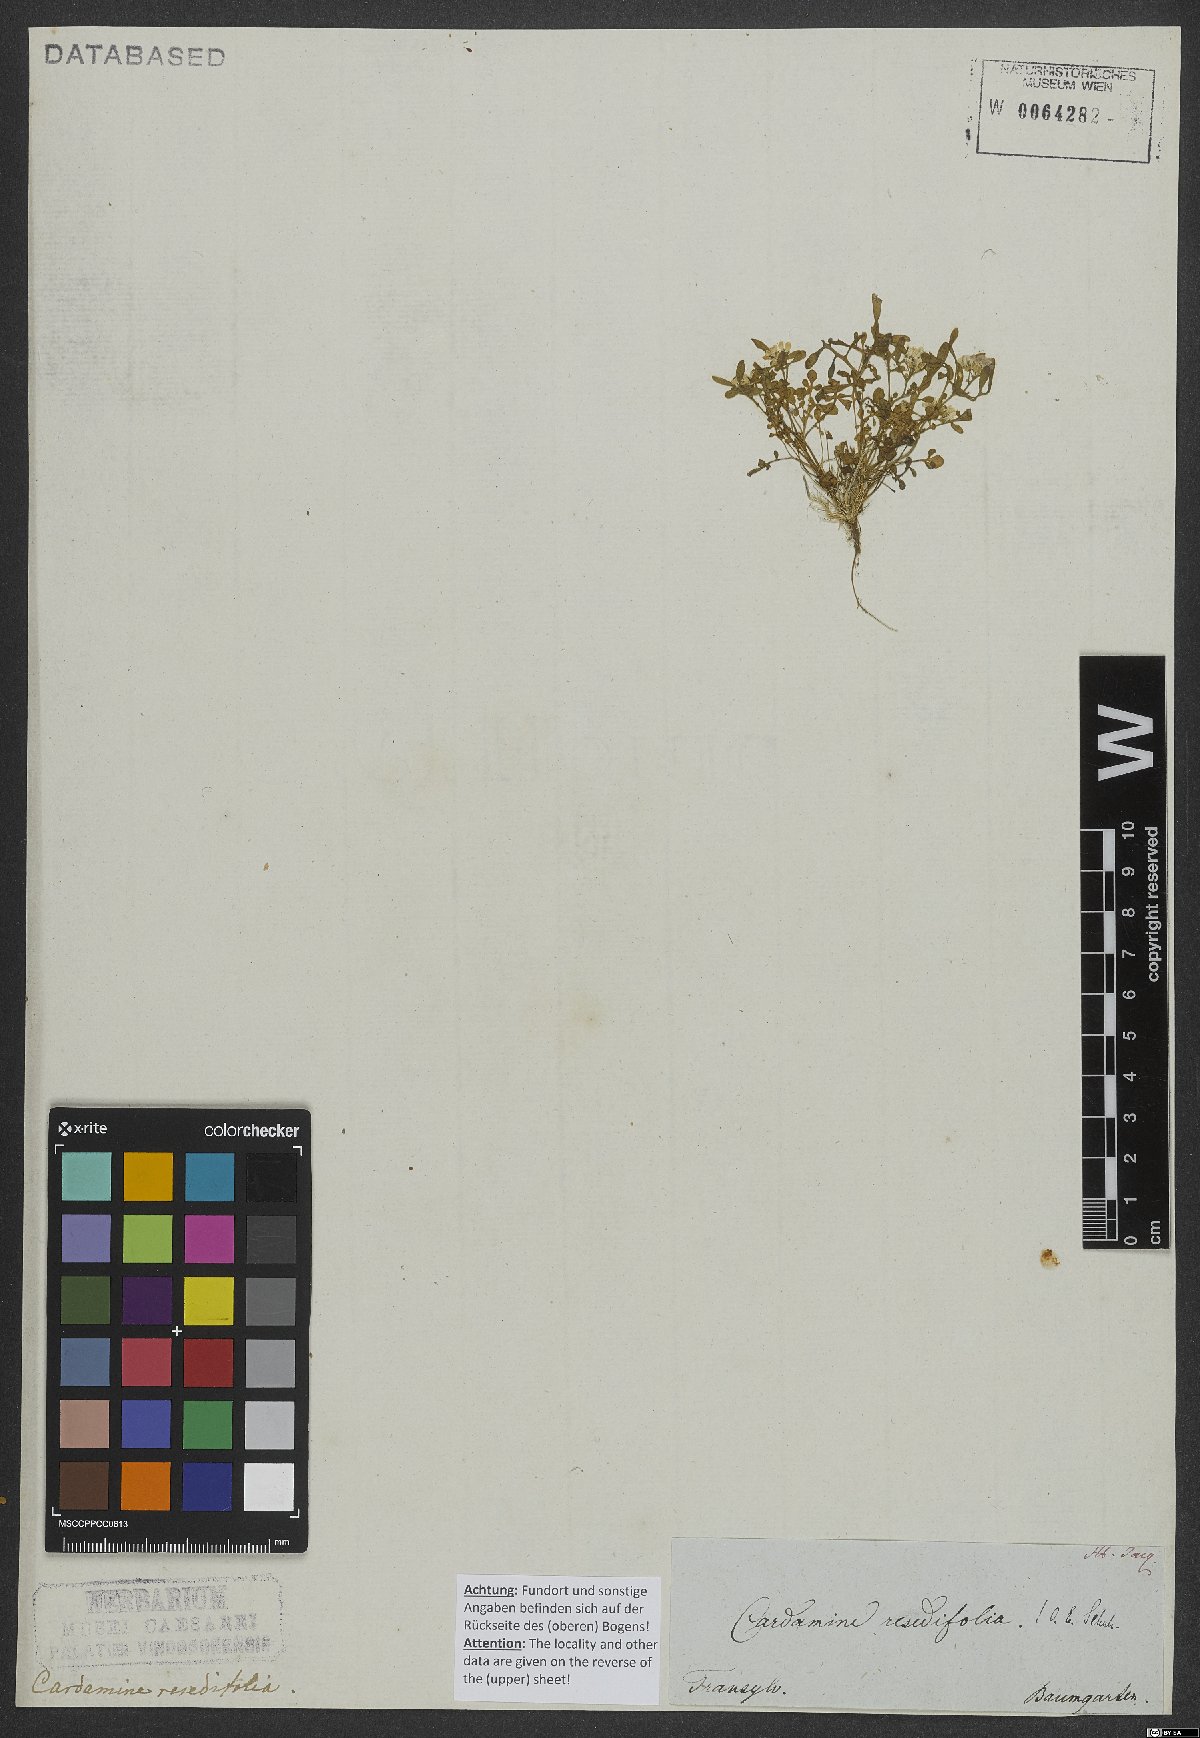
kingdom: Plantae
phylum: Tracheophyta
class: Magnoliopsida
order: Brassicales
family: Brassicaceae
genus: Cardamine
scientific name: Cardamine resedifolia
